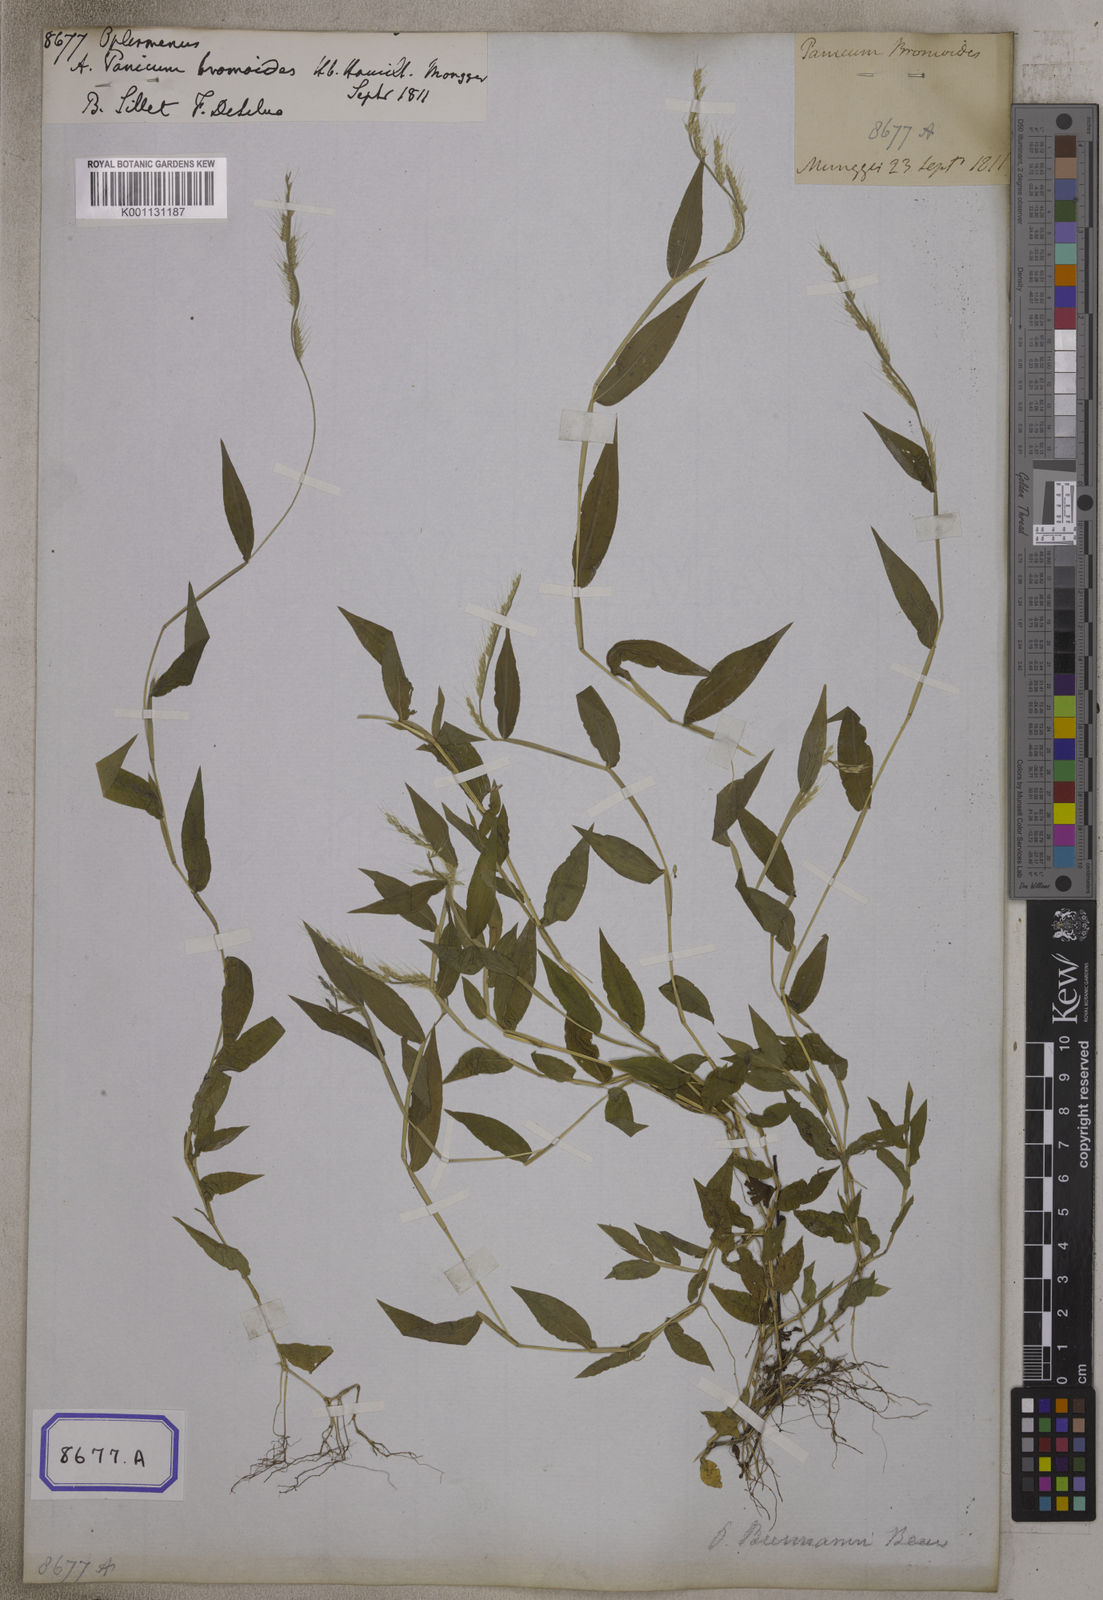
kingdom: Plantae
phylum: Tracheophyta
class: Liliopsida
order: Poales
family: Poaceae
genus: Oplismenus
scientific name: Oplismenus
